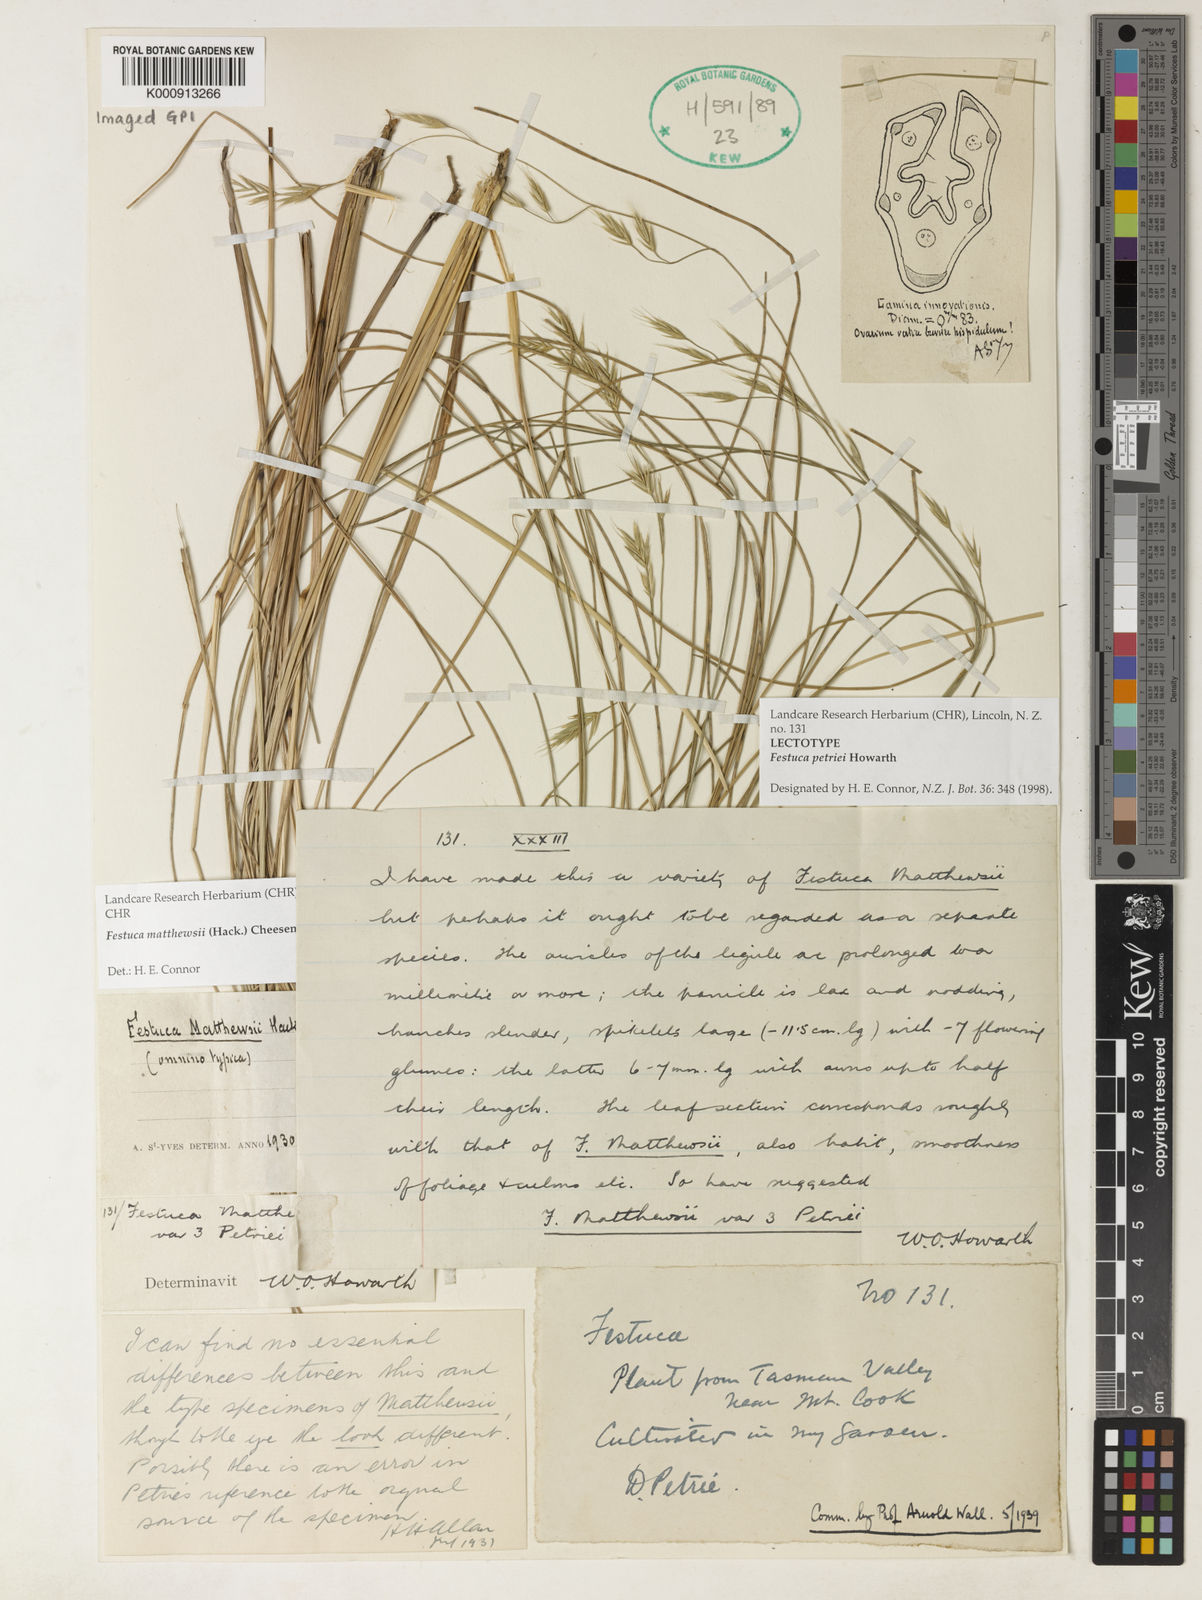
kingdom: Plantae
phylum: Tracheophyta
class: Liliopsida
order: Poales
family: Poaceae
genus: Festuca
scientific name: Festuca matthewsii
